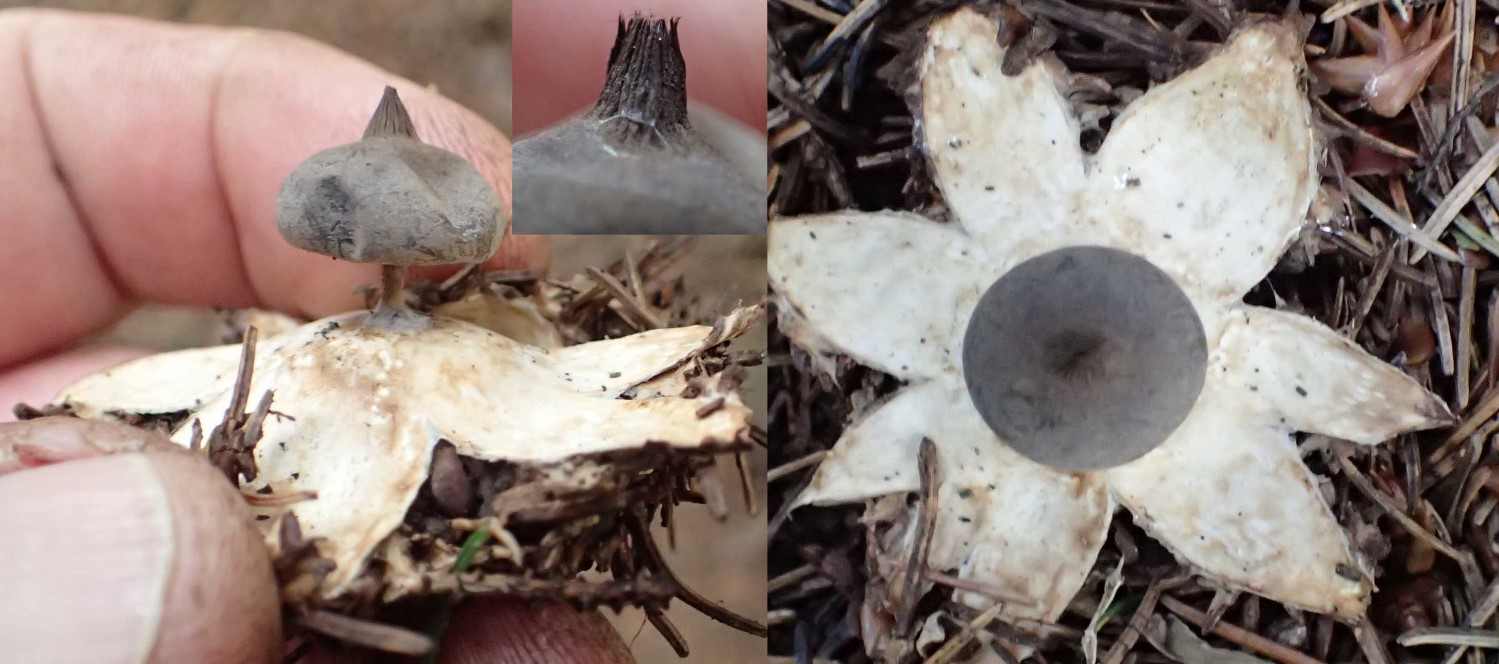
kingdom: Fungi
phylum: Basidiomycota
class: Agaricomycetes
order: Geastrales
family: Geastraceae
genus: Geastrum
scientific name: Geastrum pectinatum
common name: stilket stjernebold
